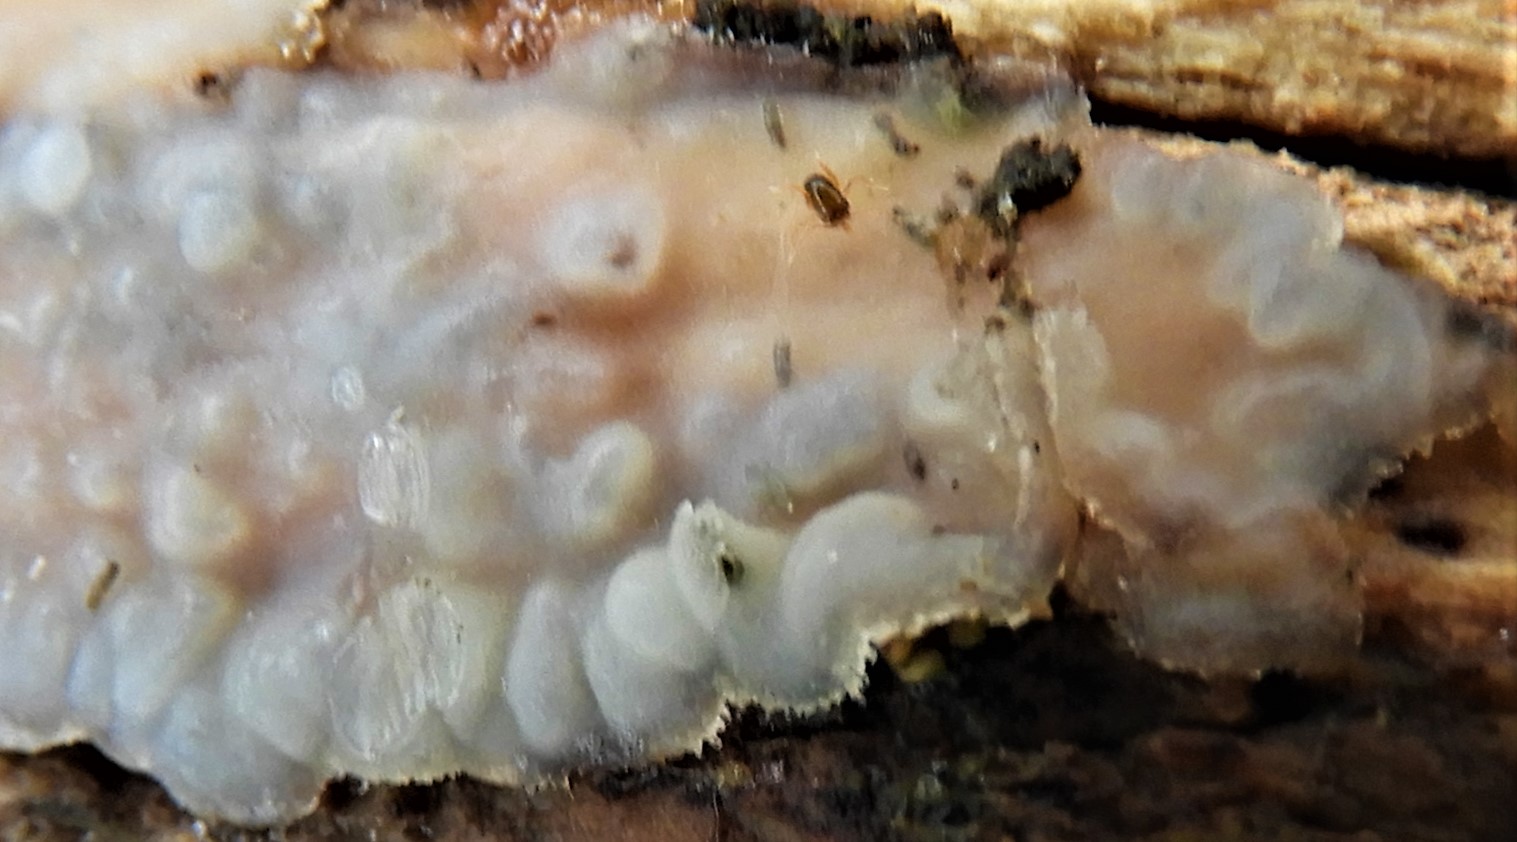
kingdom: Fungi
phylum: Basidiomycota
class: Agaricomycetes
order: Auriculariales
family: Auriculariaceae
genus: Exidia
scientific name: Exidia thuretiana
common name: hvidlig bævretop
